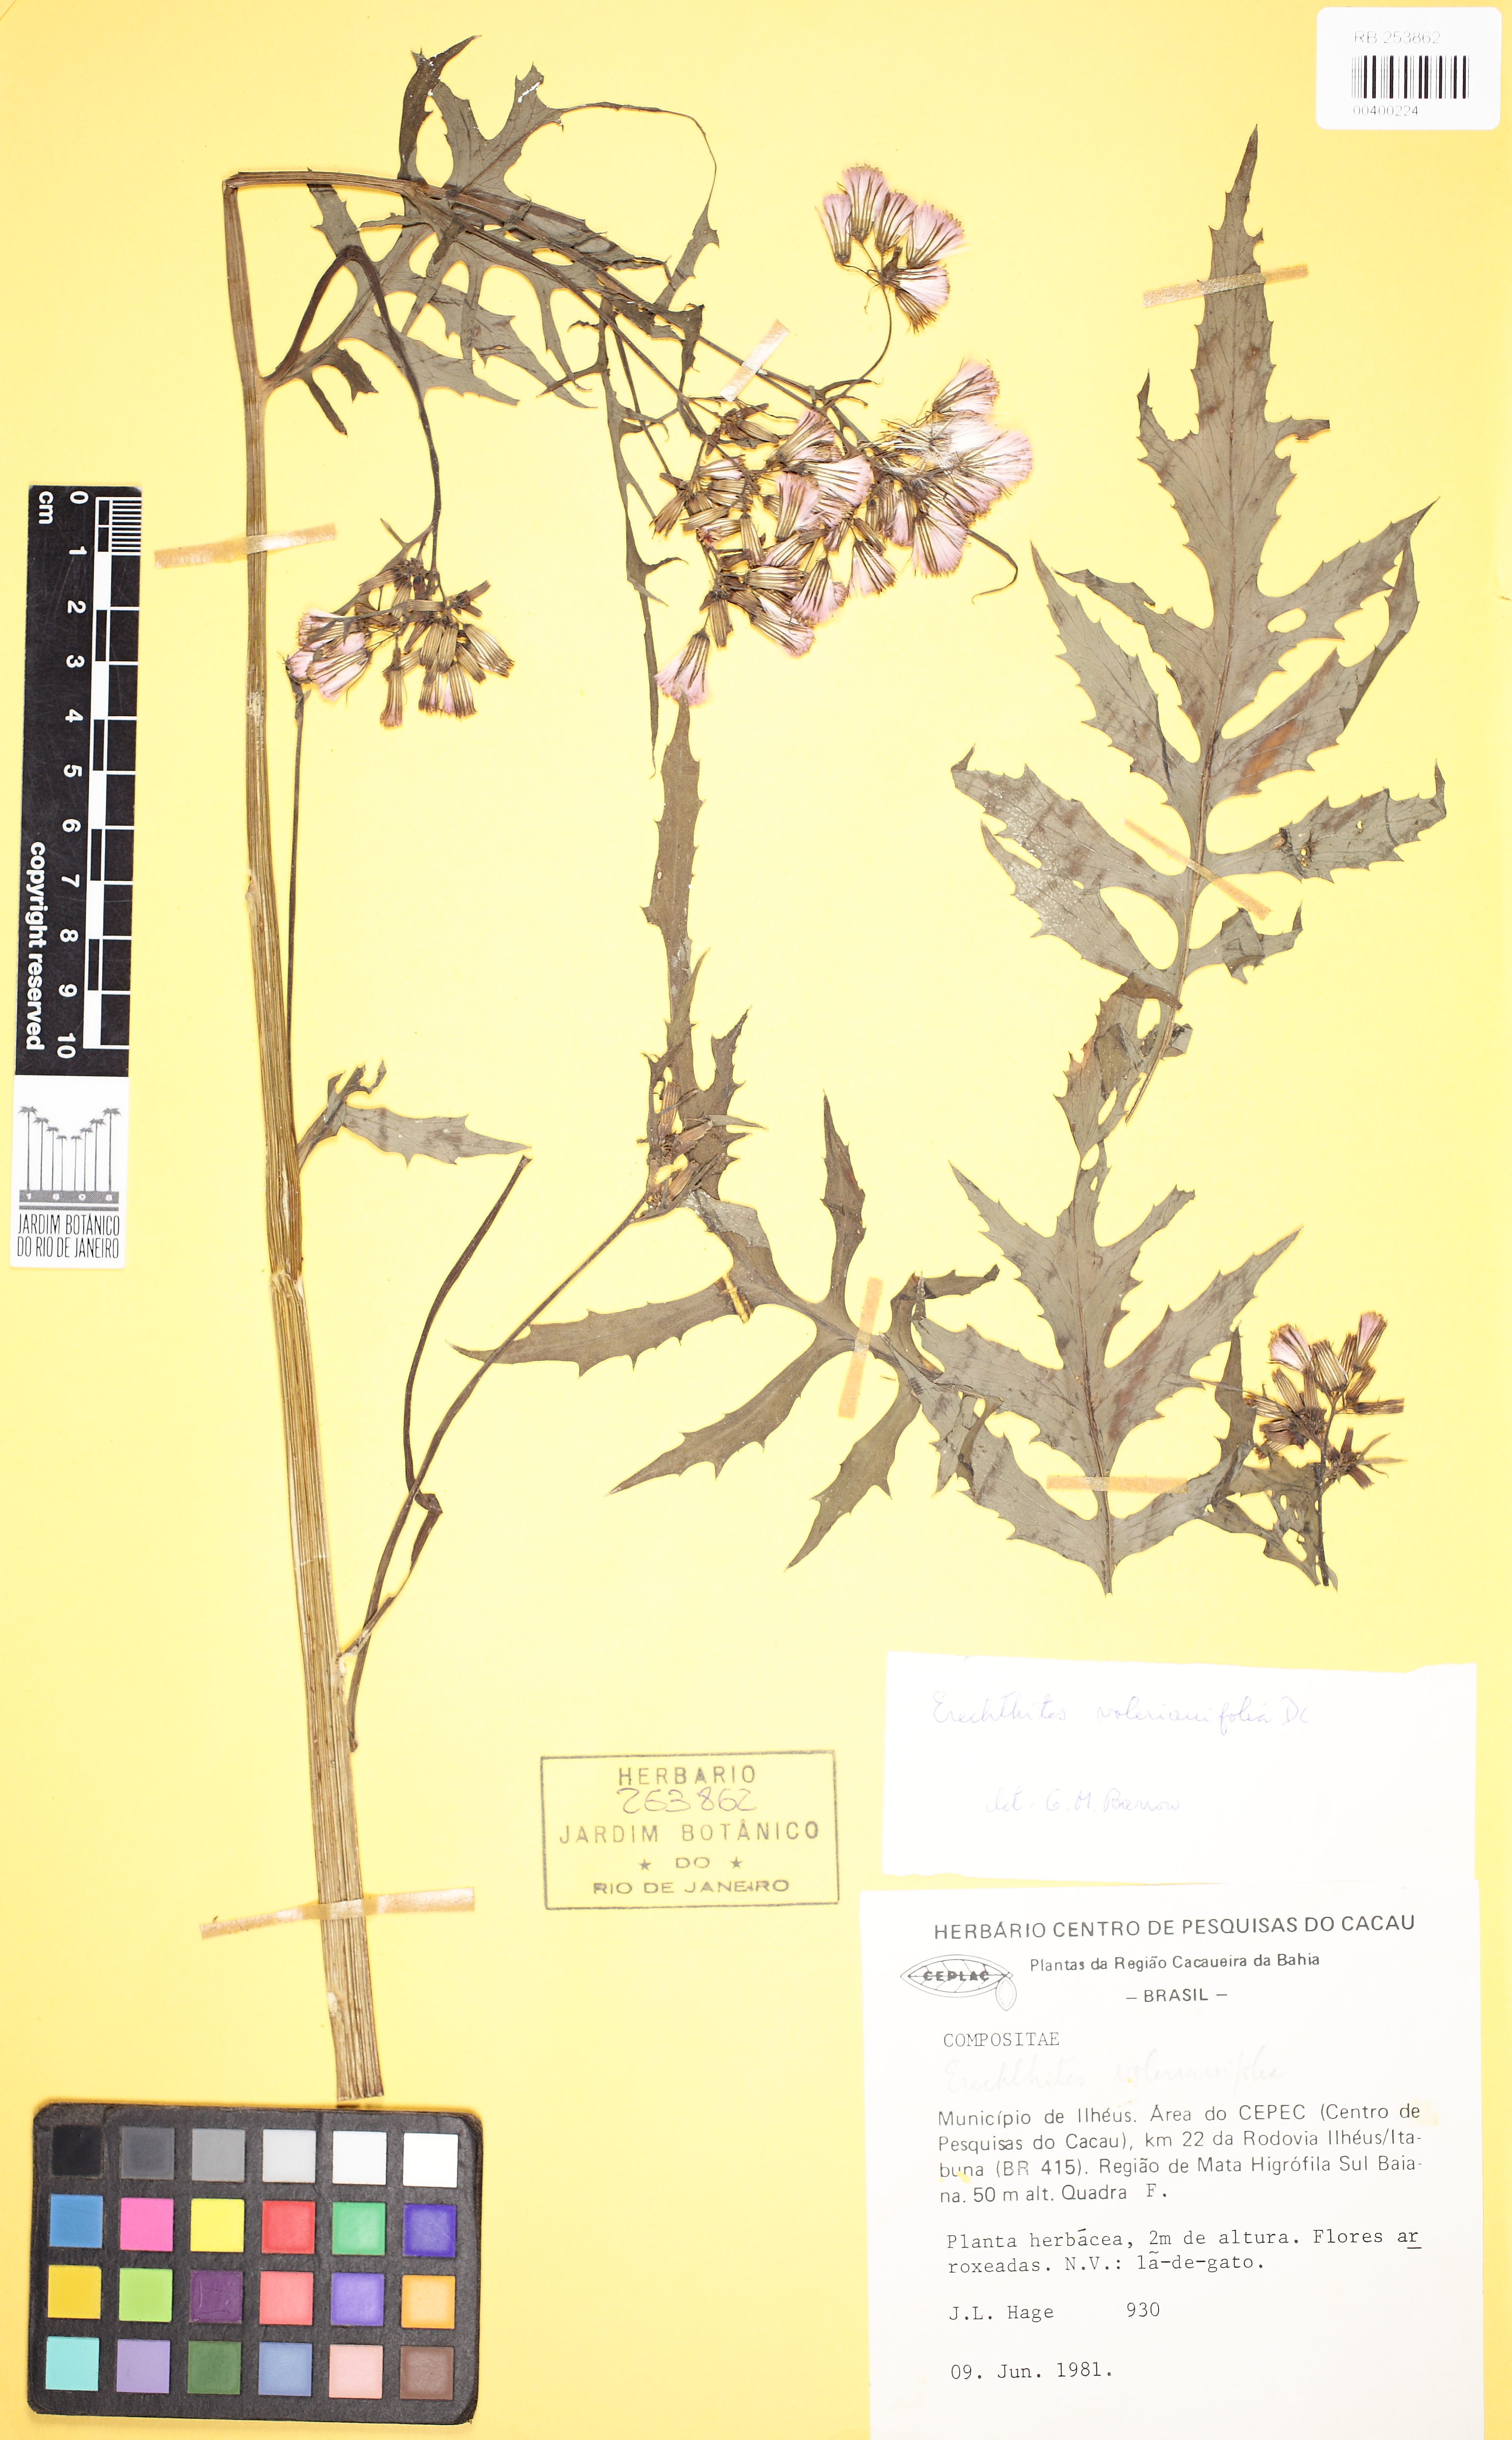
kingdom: Plantae
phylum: Tracheophyta
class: Magnoliopsida
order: Asterales
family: Asteraceae
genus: Erechtites
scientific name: Erechtites valerianifolius
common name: Tropical burnweed
